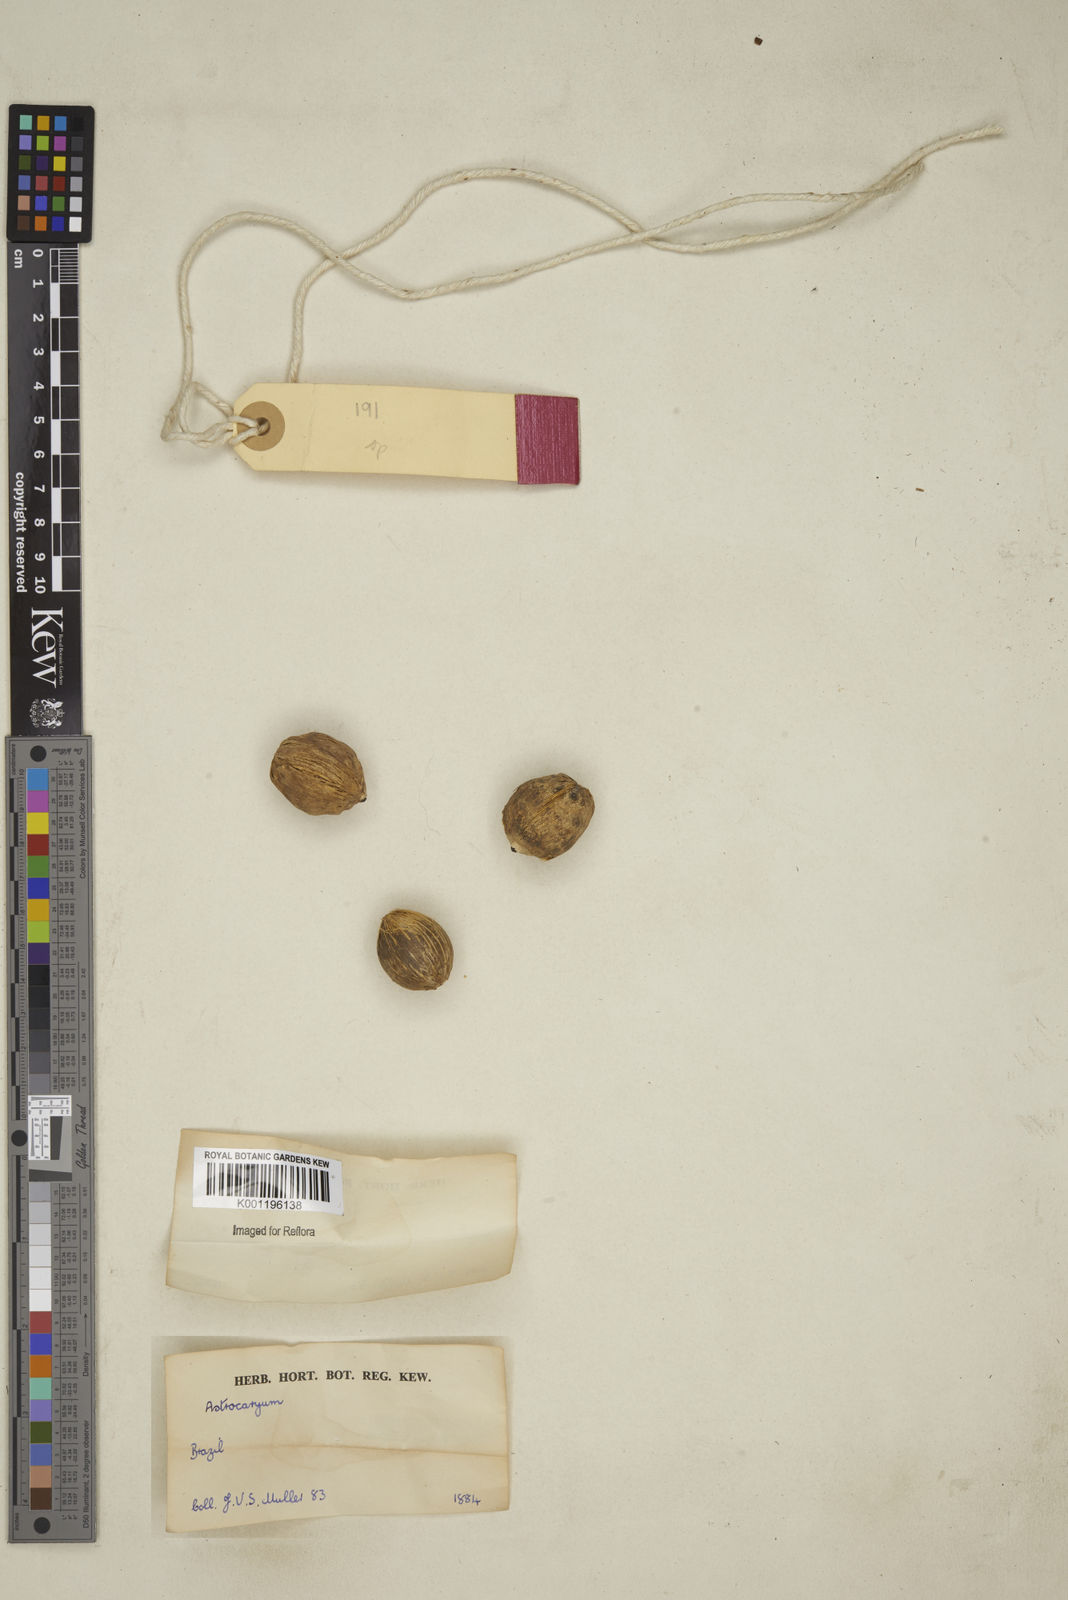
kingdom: Plantae
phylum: Tracheophyta
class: Liliopsida
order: Arecales
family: Arecaceae
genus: Astrocaryum
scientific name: Astrocaryum
